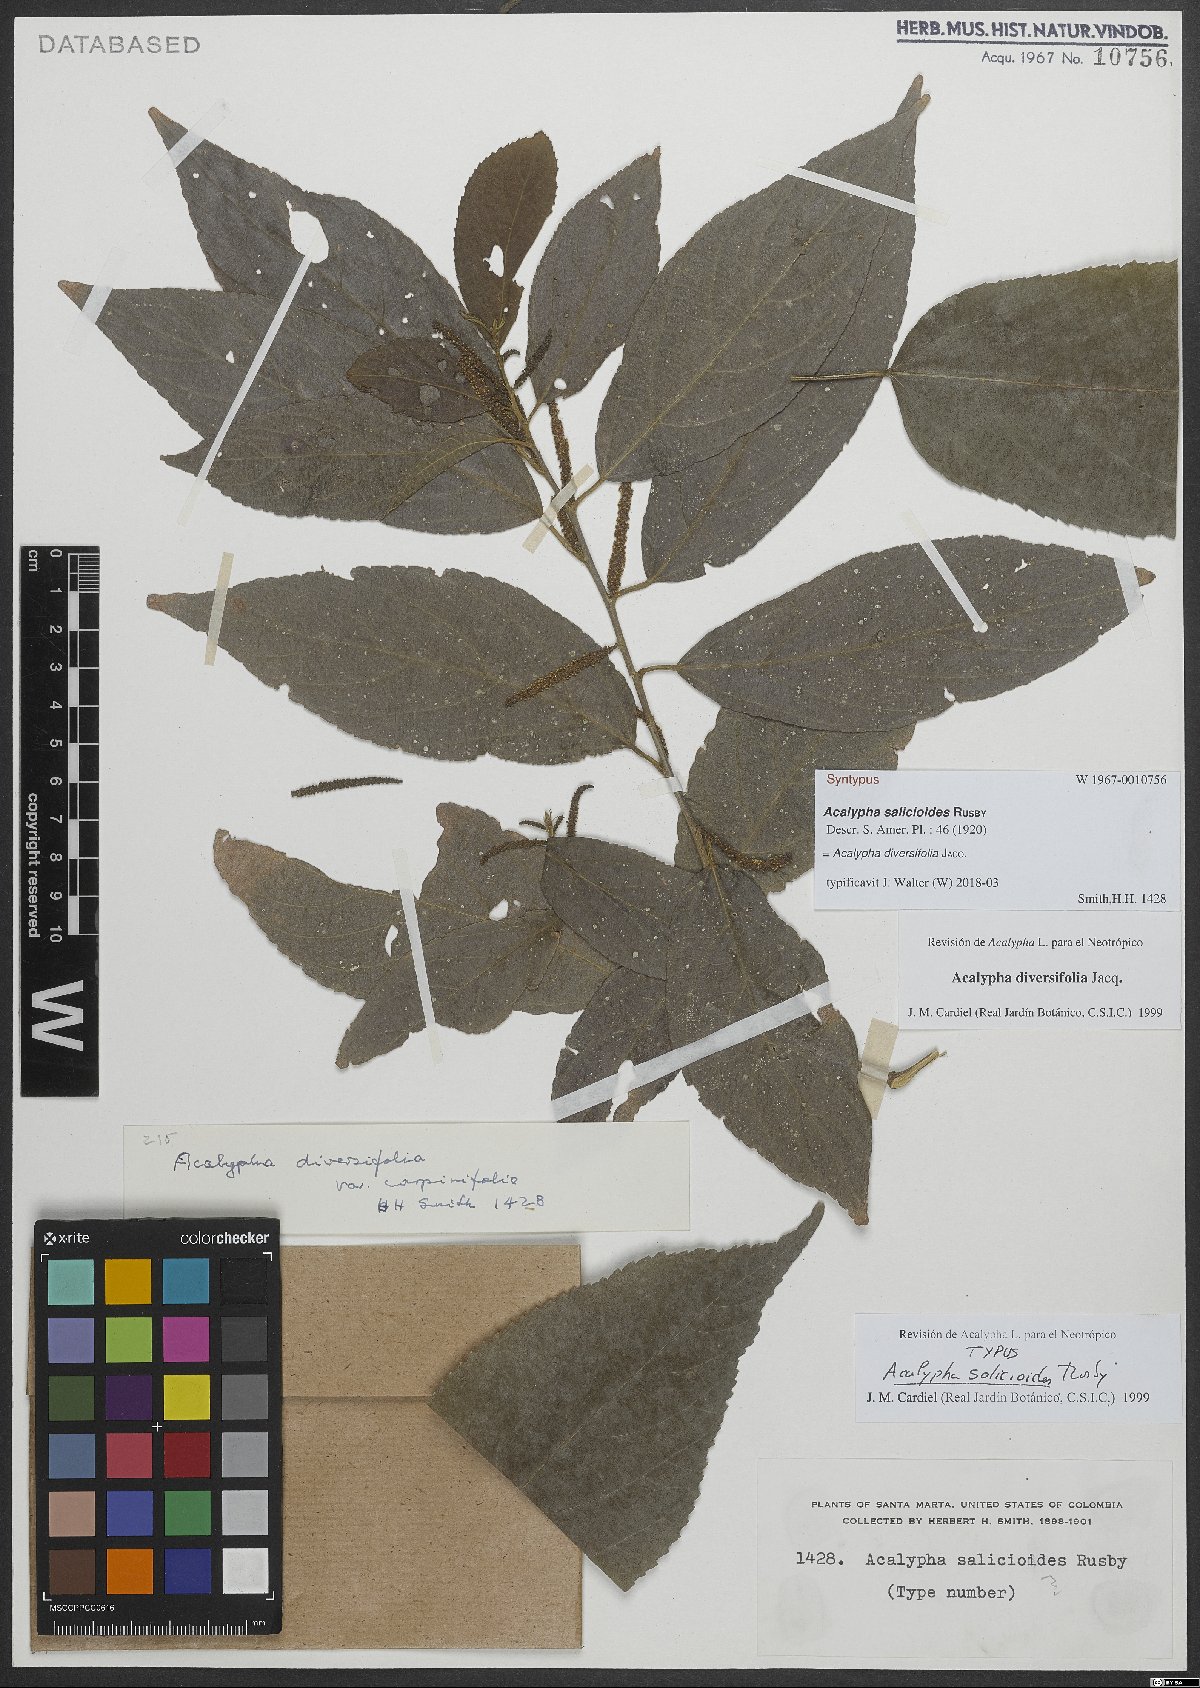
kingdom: Plantae
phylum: Tracheophyta
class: Magnoliopsida
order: Malpighiales
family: Euphorbiaceae
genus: Acalypha
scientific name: Acalypha diversifolia
